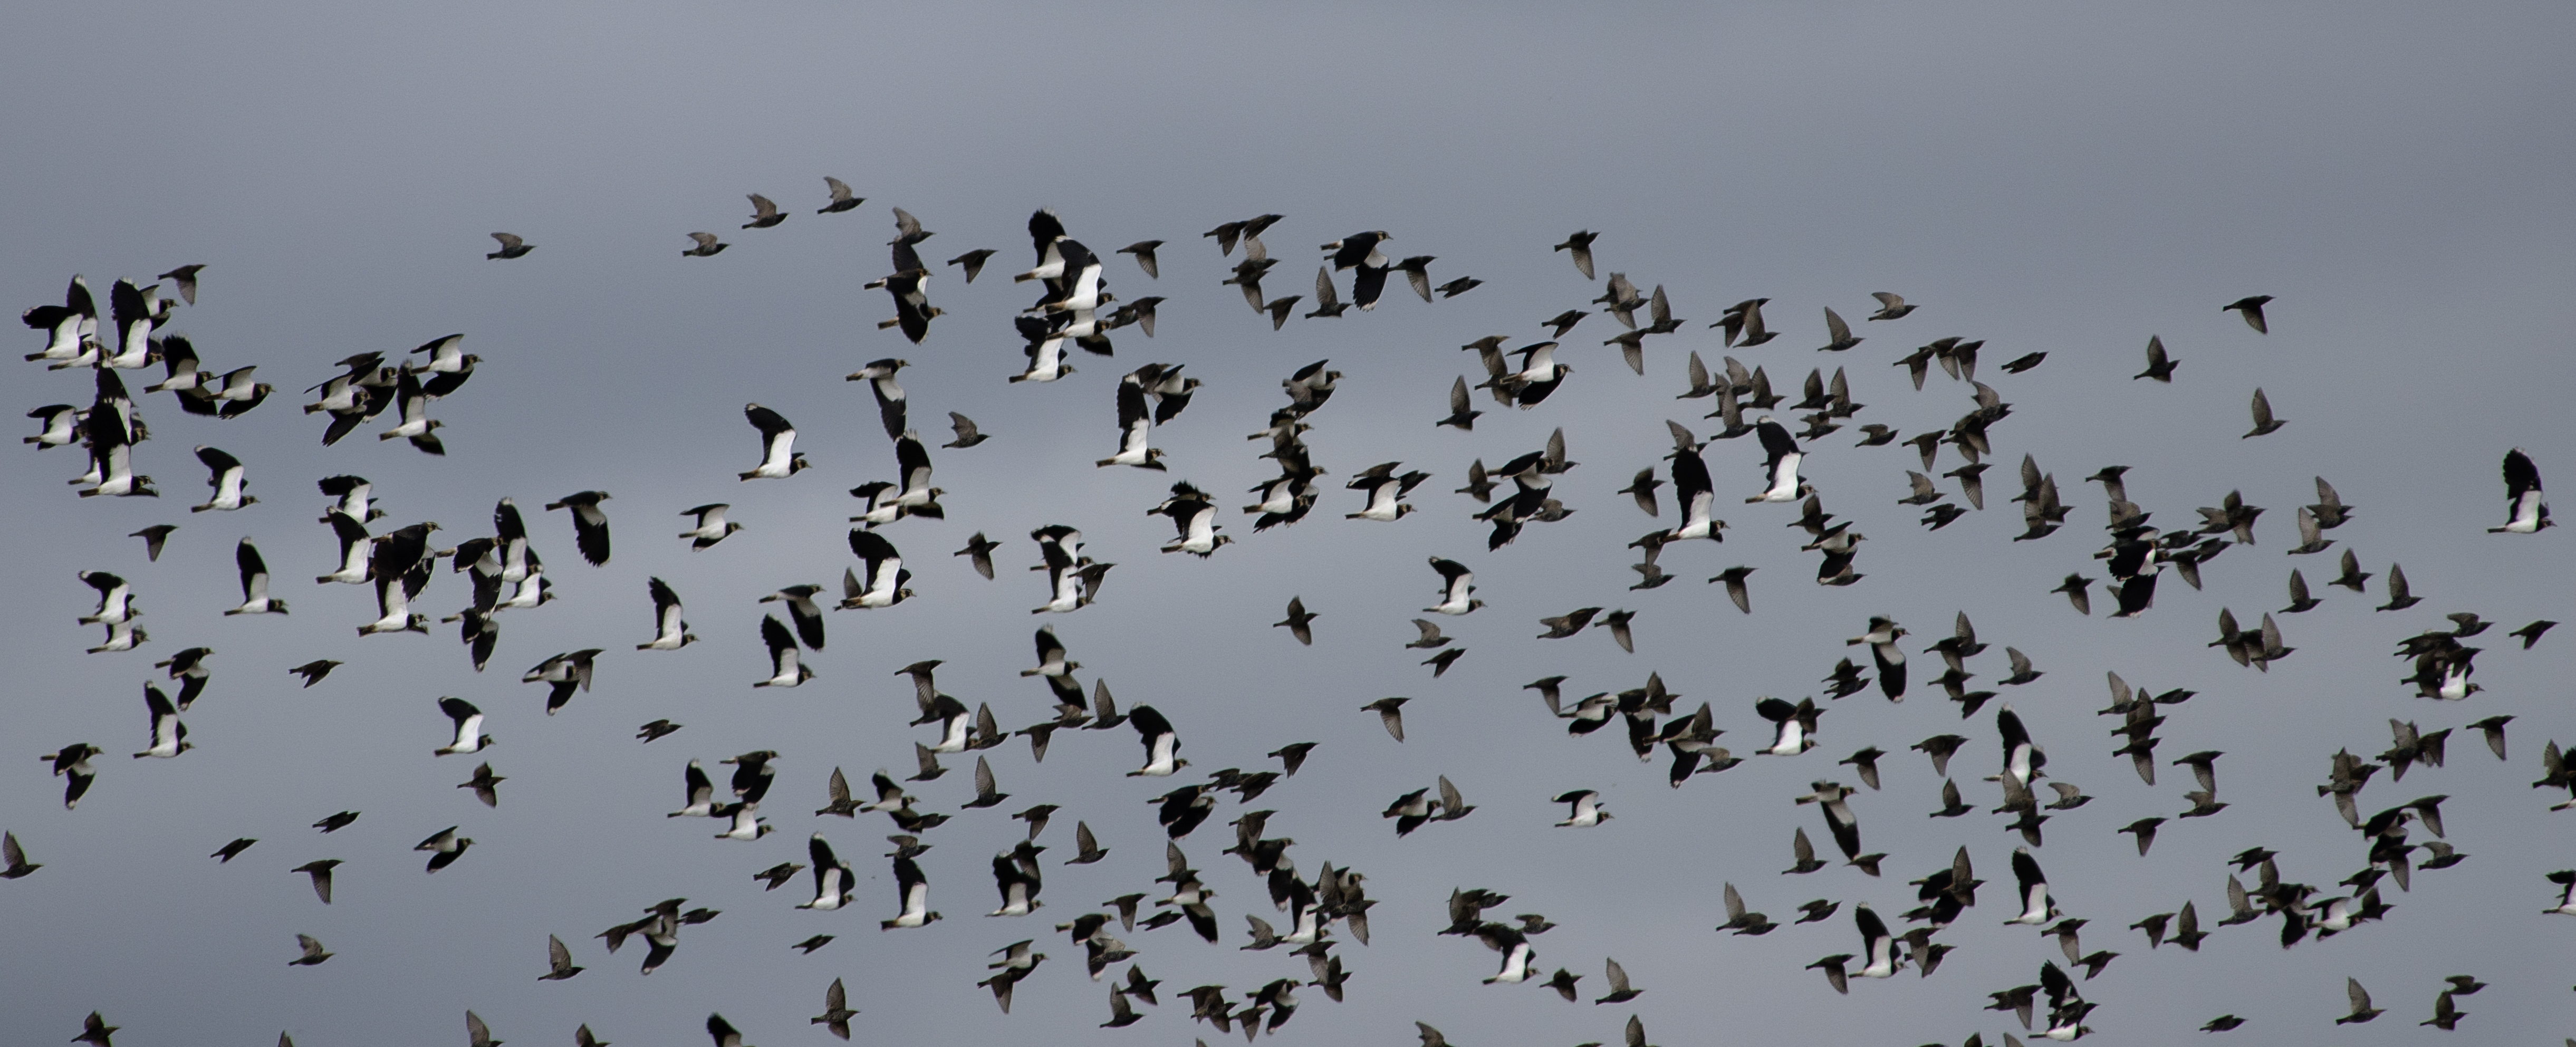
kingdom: Animalia
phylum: Chordata
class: Aves
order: Charadriiformes
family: Charadriidae
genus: Vanellus
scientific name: Vanellus vanellus
